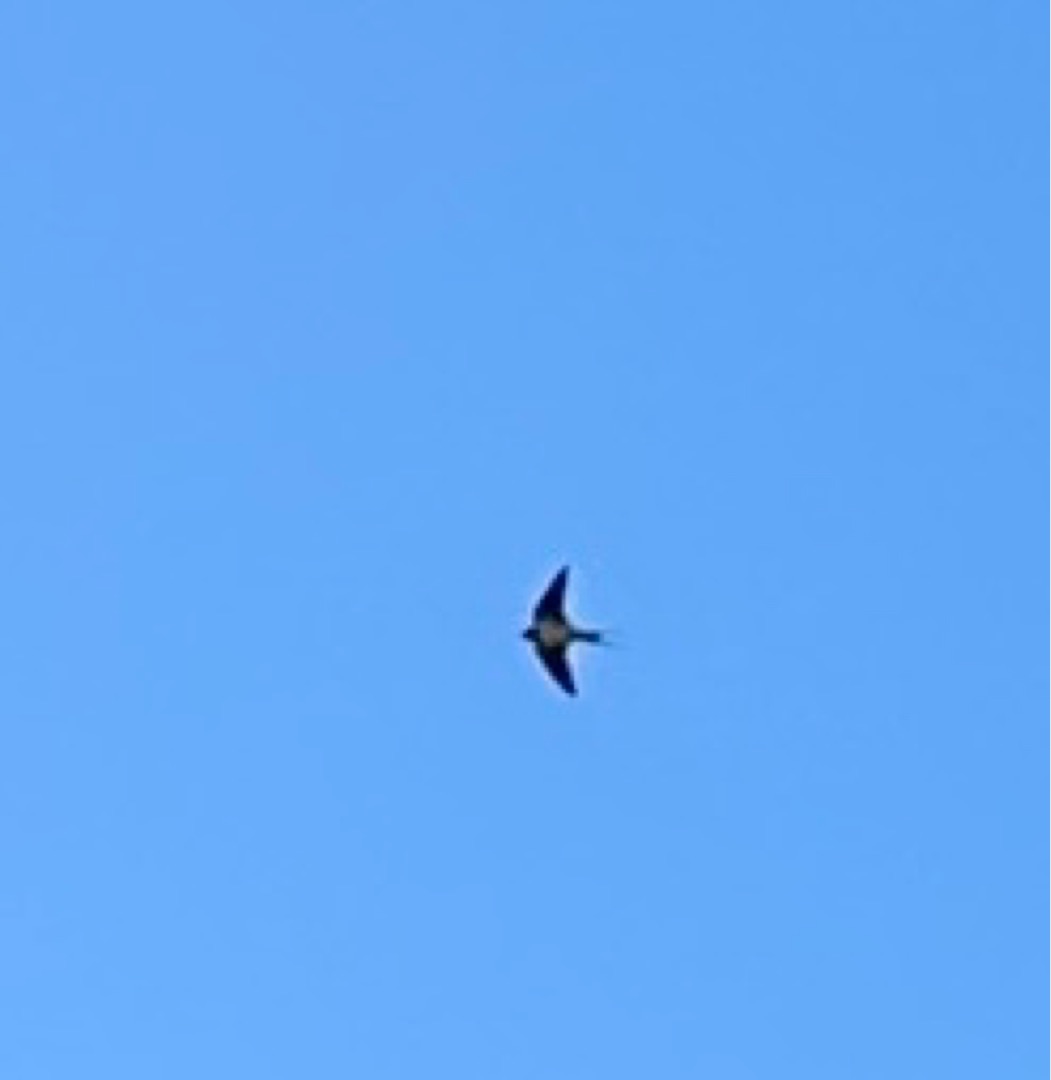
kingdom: Animalia
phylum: Chordata
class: Aves
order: Passeriformes
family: Hirundinidae
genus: Hirundo
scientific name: Hirundo rustica
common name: Landsvale
